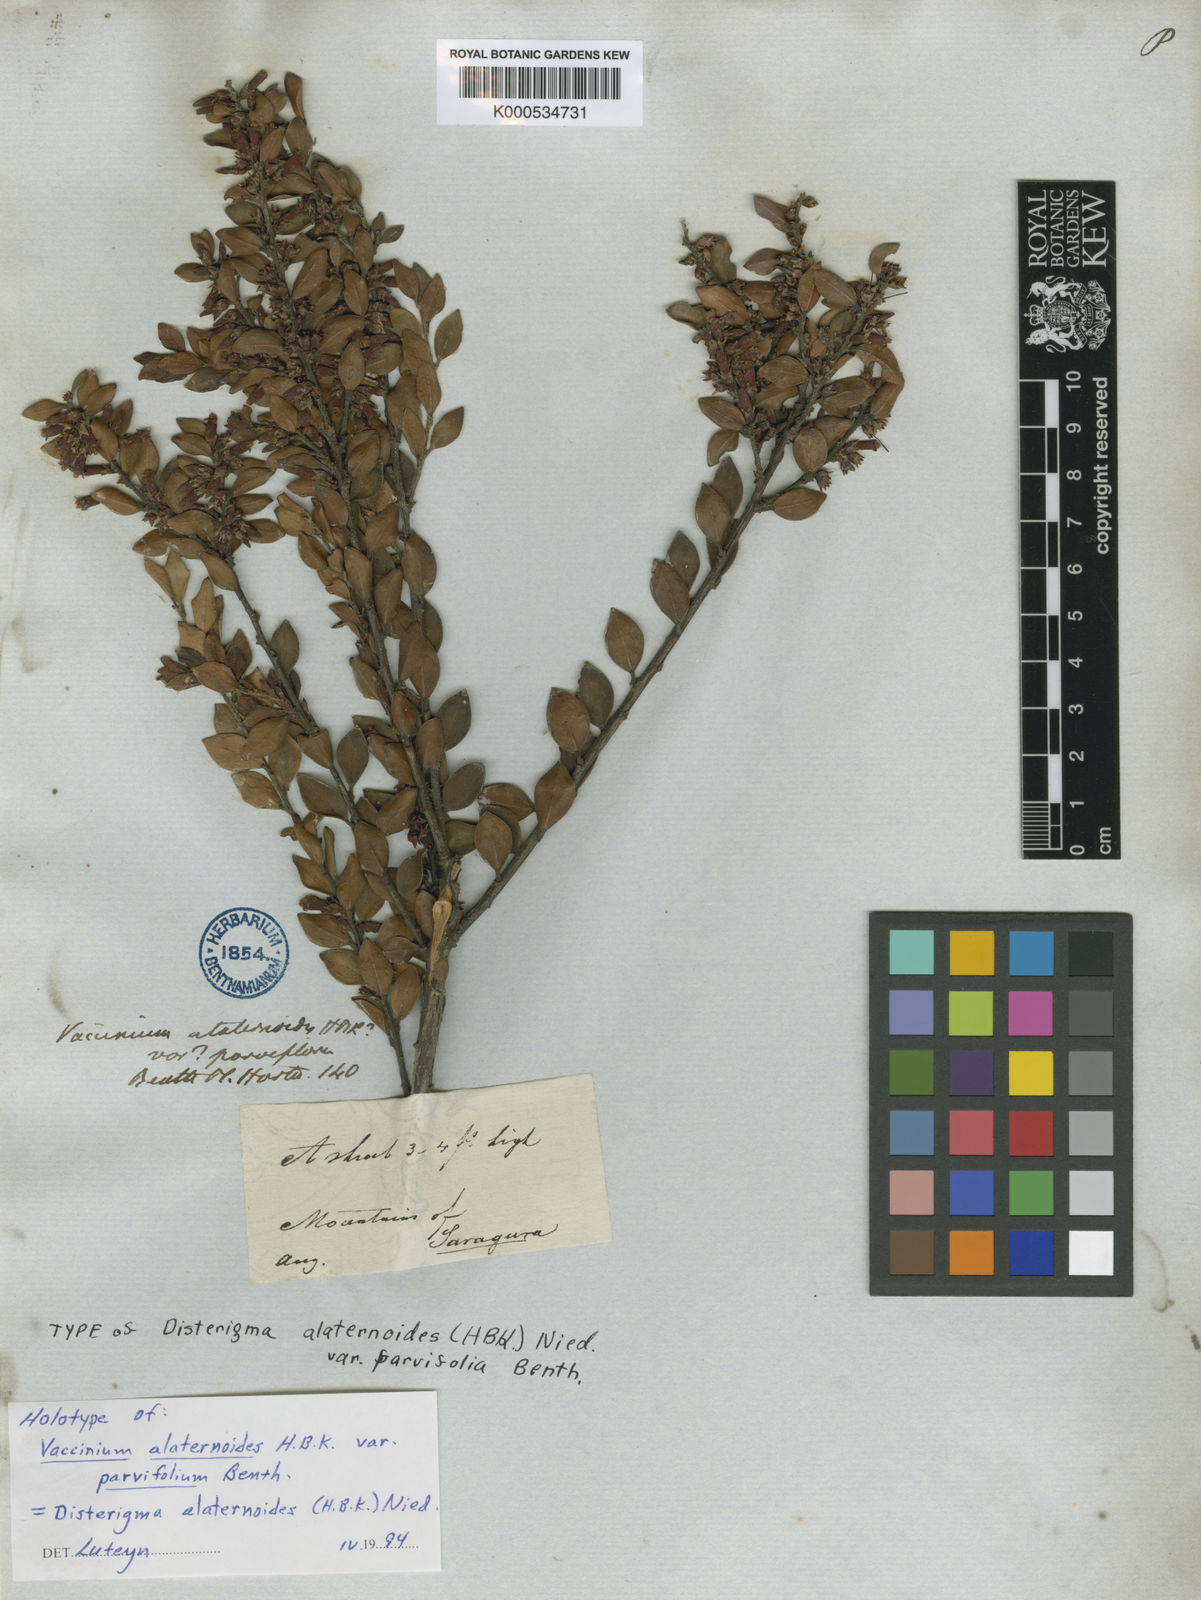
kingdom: Plantae
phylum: Tracheophyta
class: Magnoliopsida
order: Ericales
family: Ericaceae
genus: Disterigma
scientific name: Disterigma alaternoides
